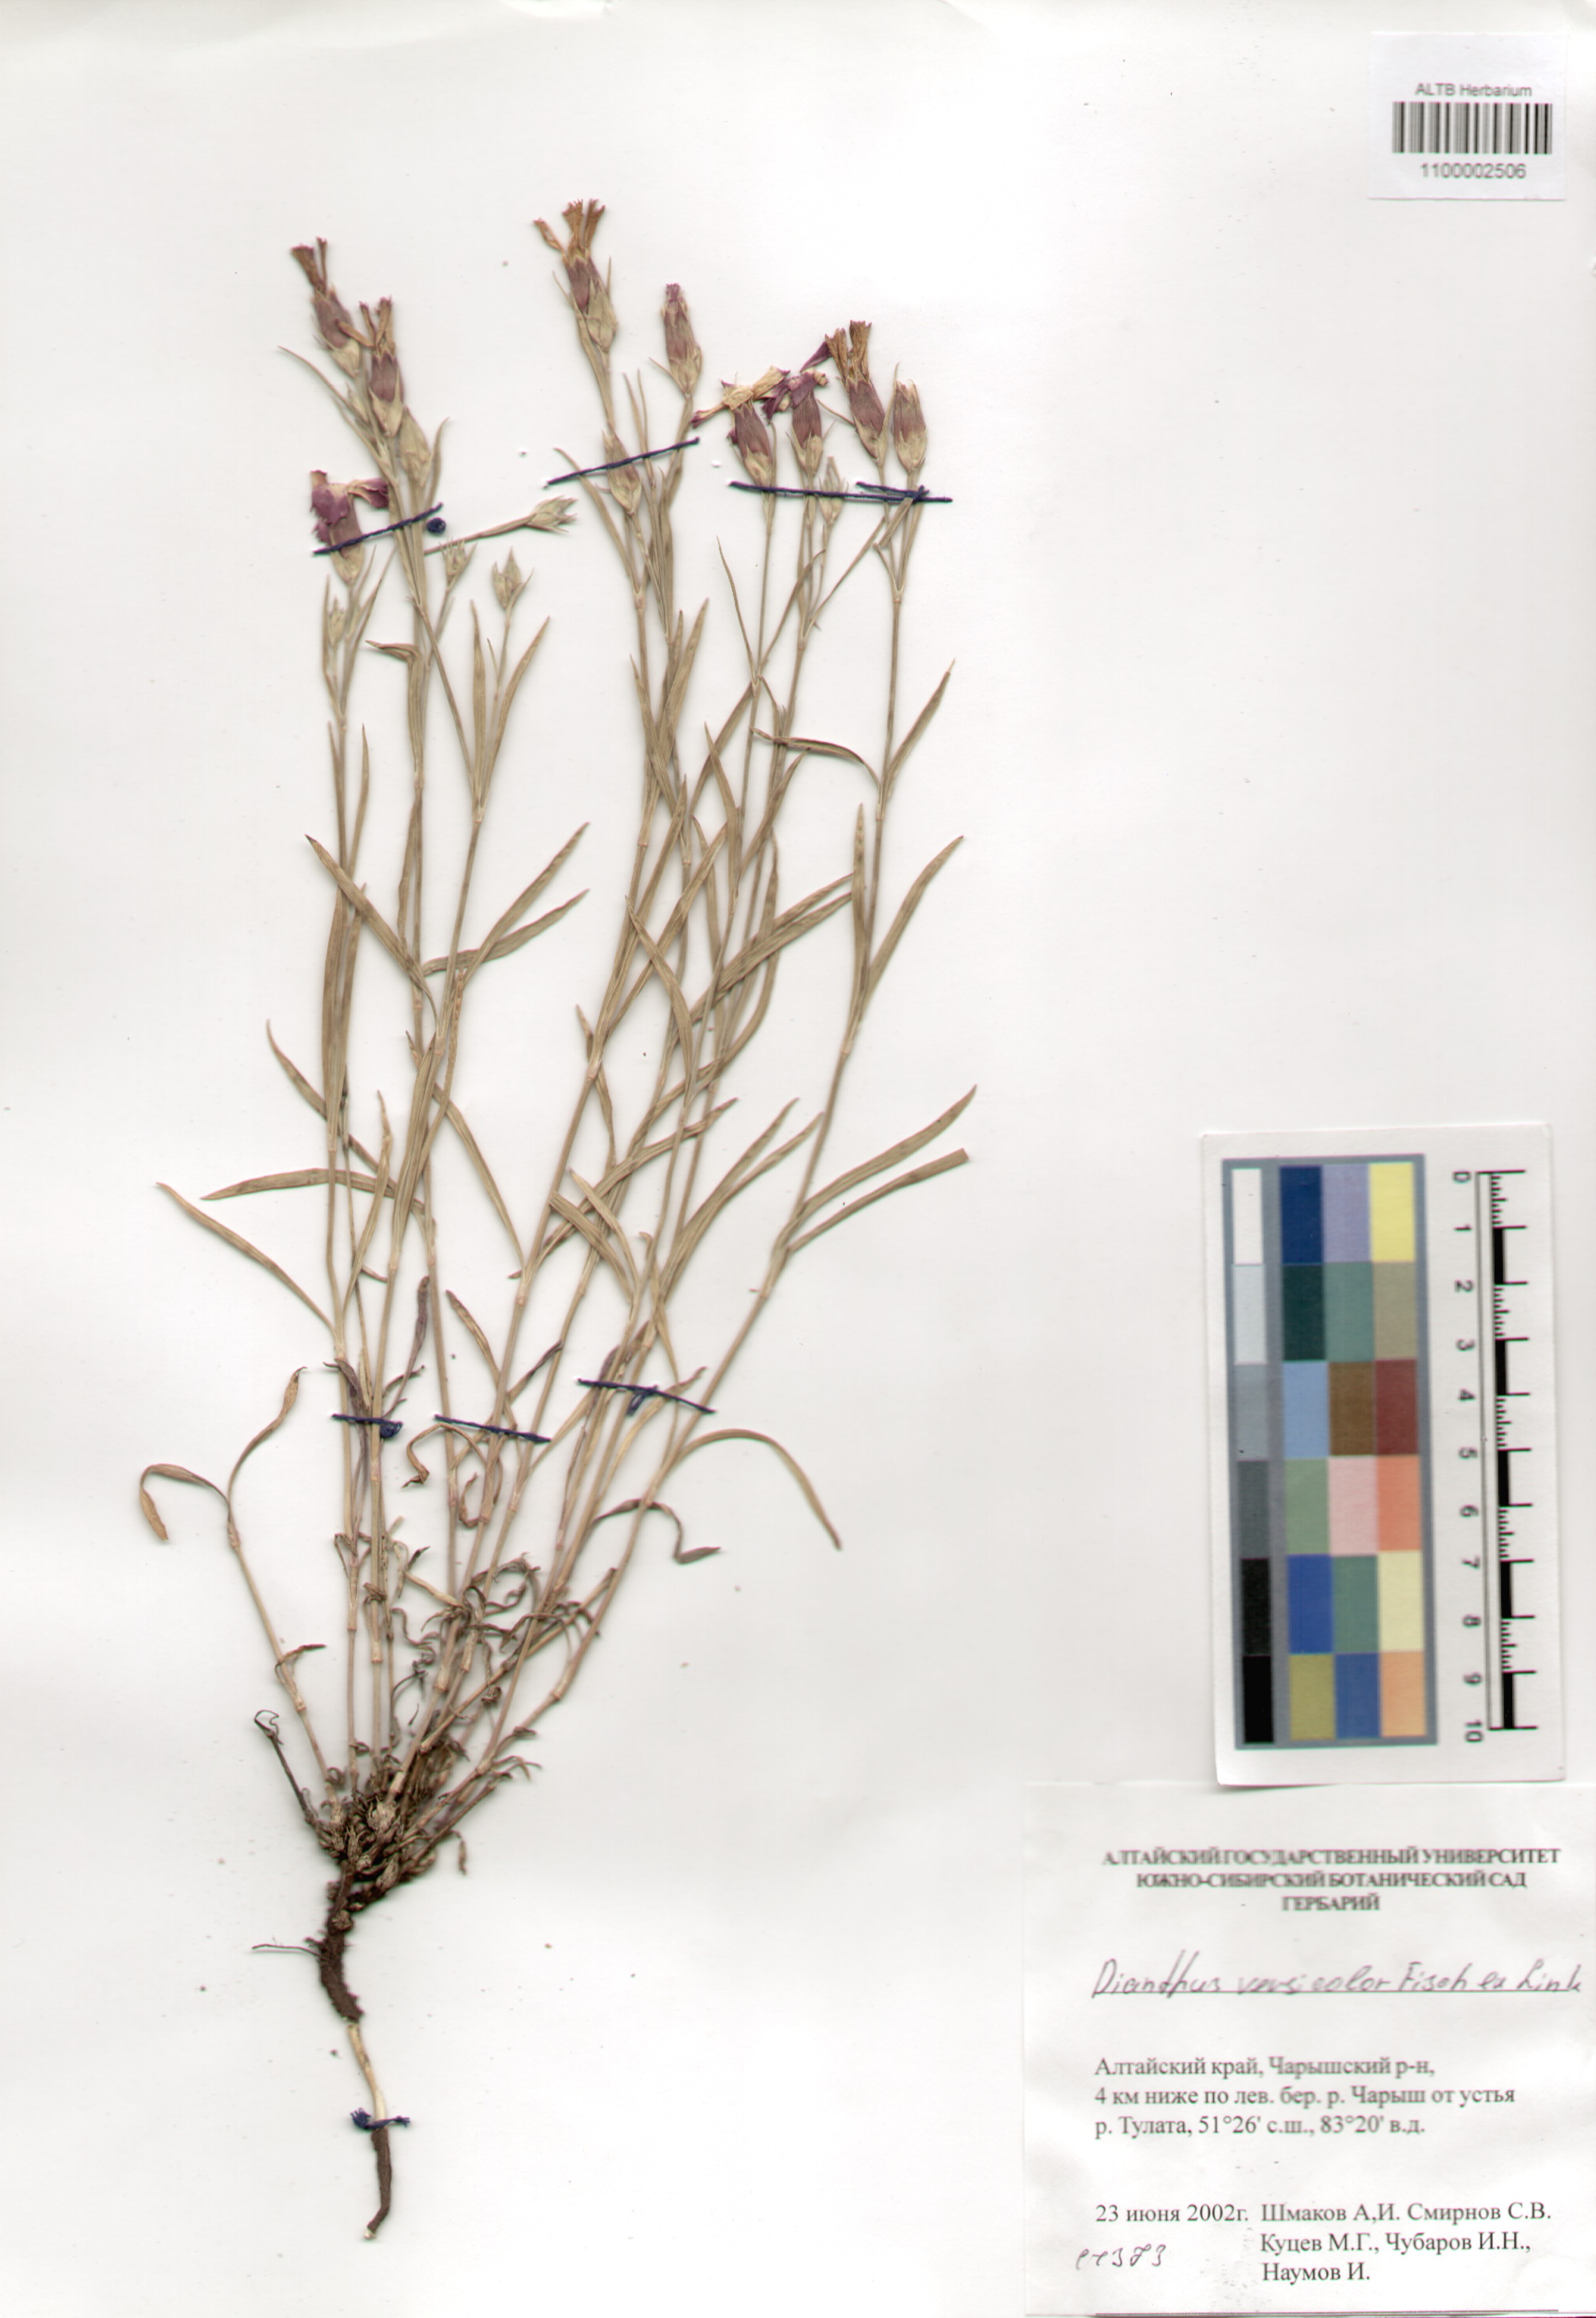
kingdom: Plantae
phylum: Tracheophyta
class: Magnoliopsida
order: Caryophyllales
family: Caryophyllaceae
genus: Dianthus
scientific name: Dianthus chinensis
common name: Rainbow pink
